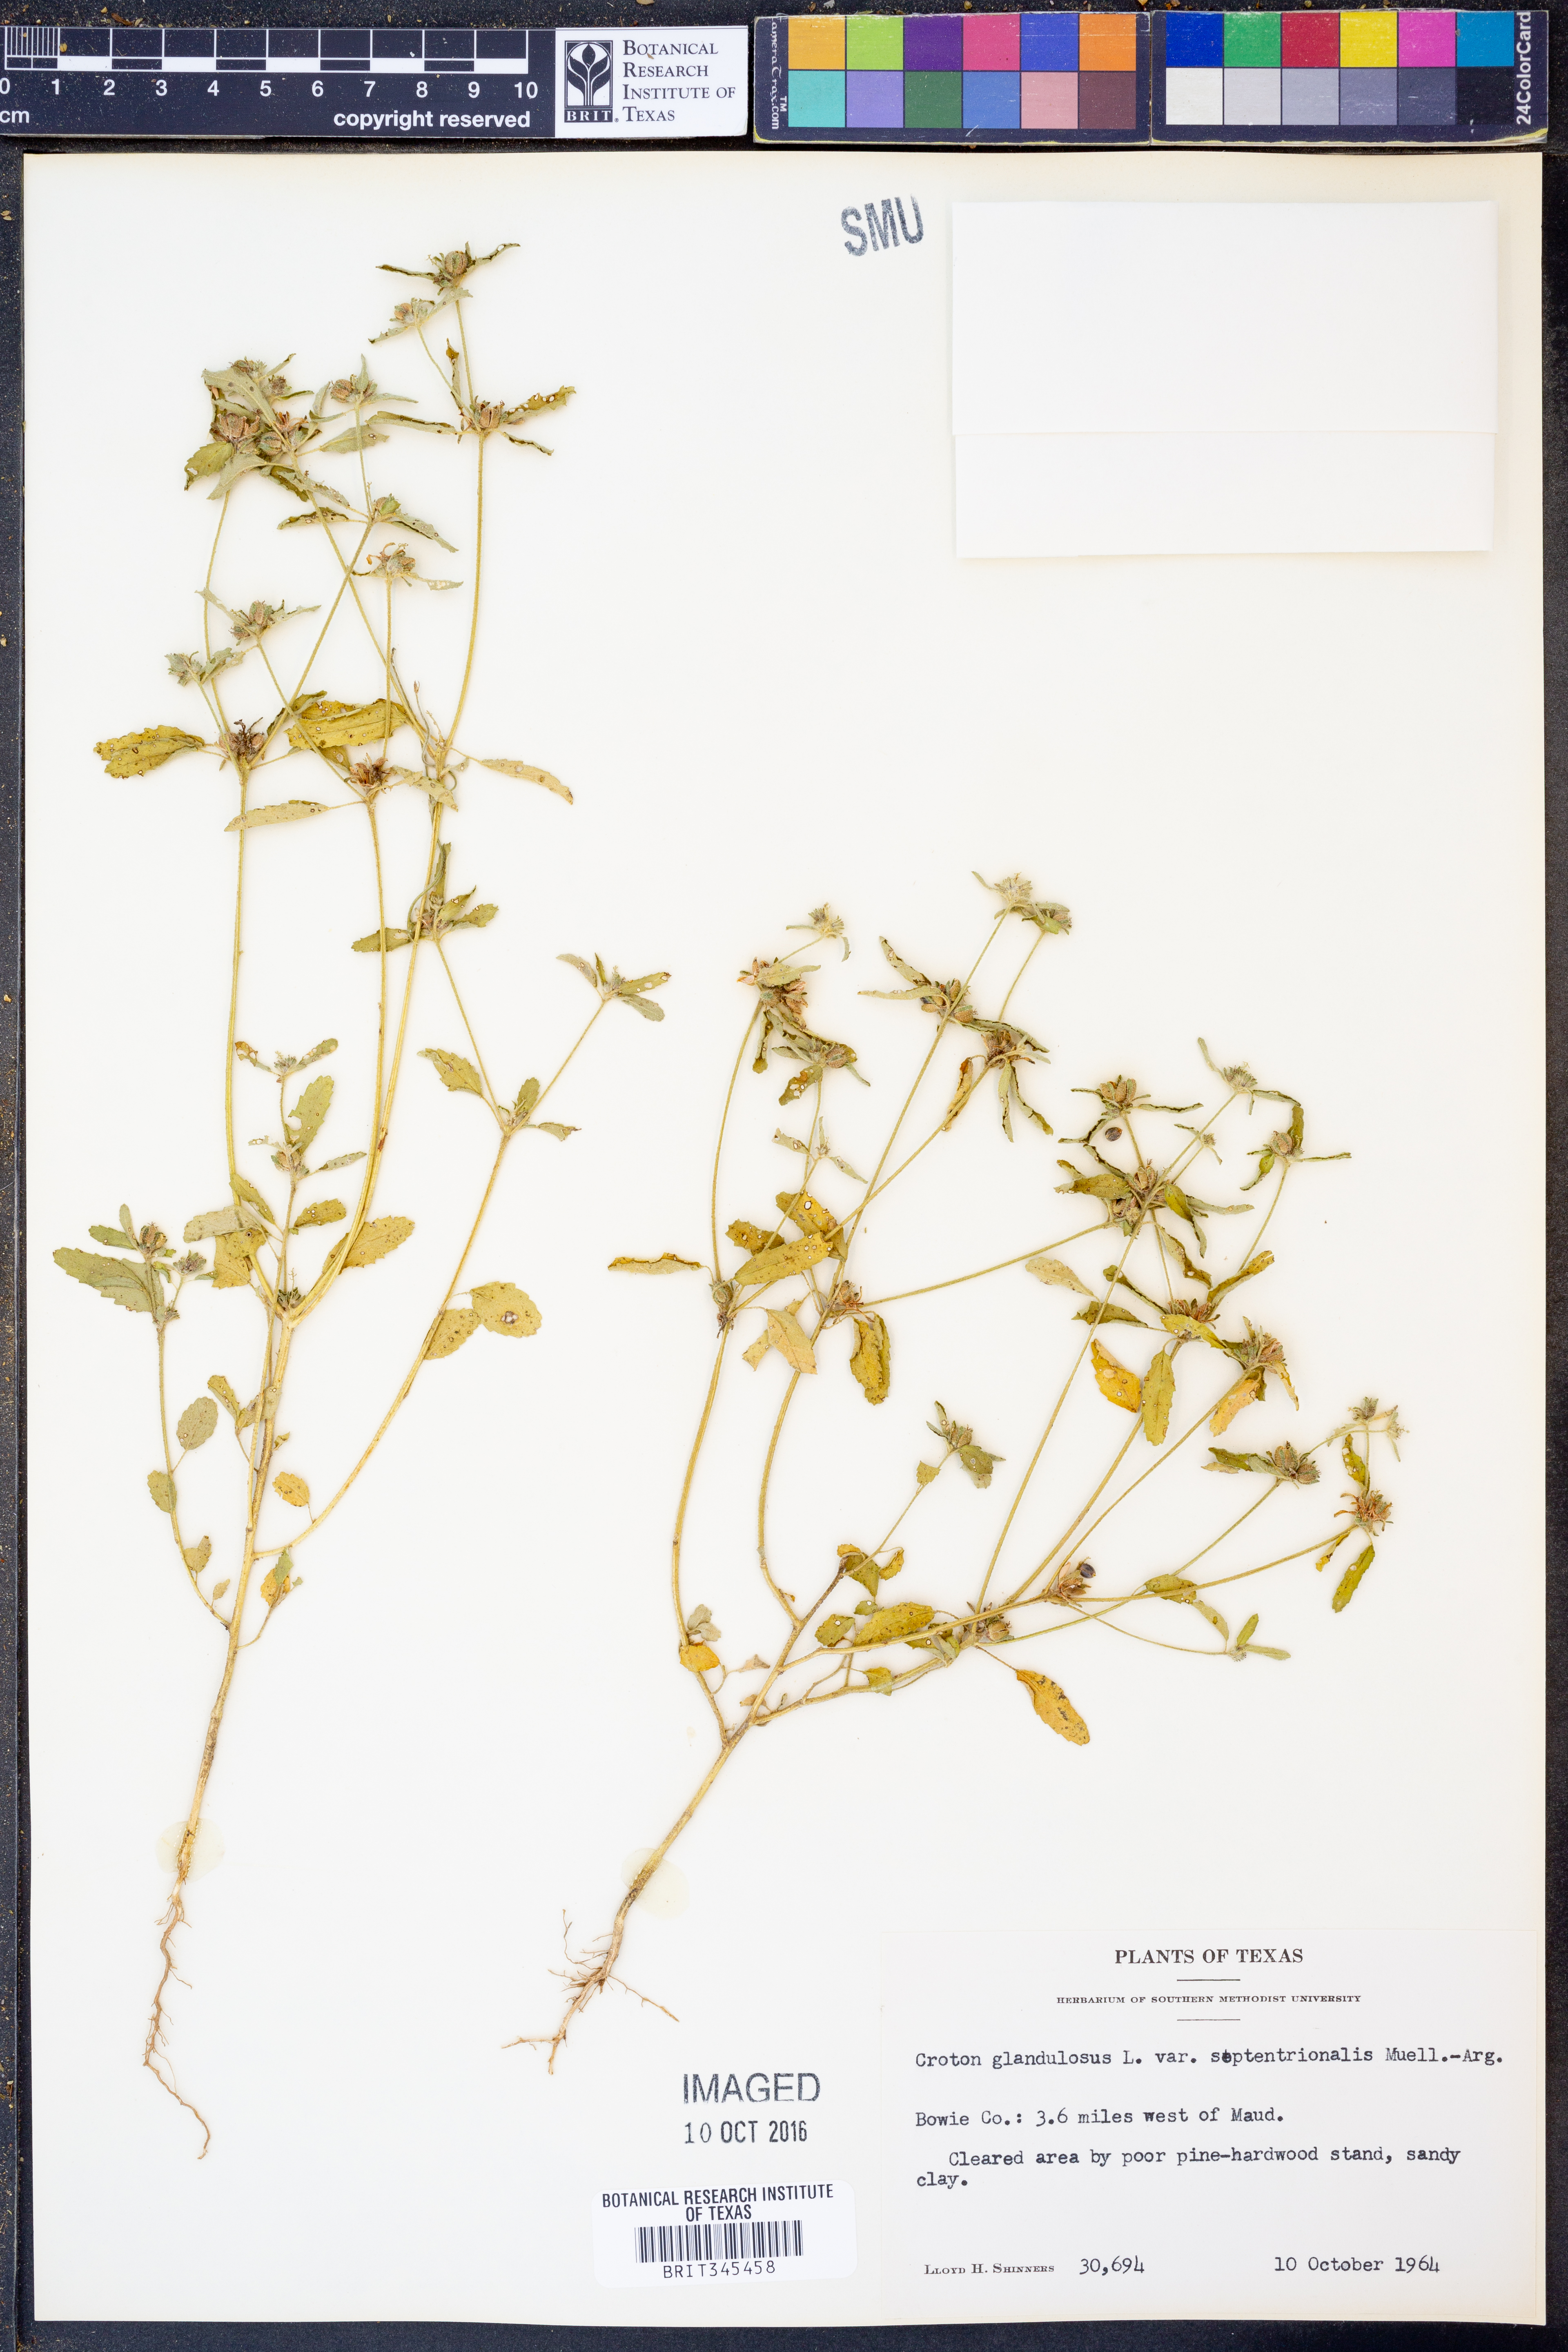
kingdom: Plantae
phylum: Tracheophyta
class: Magnoliopsida
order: Malpighiales
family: Euphorbiaceae
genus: Croton
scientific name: Croton glandulosus
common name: Tropic croton
